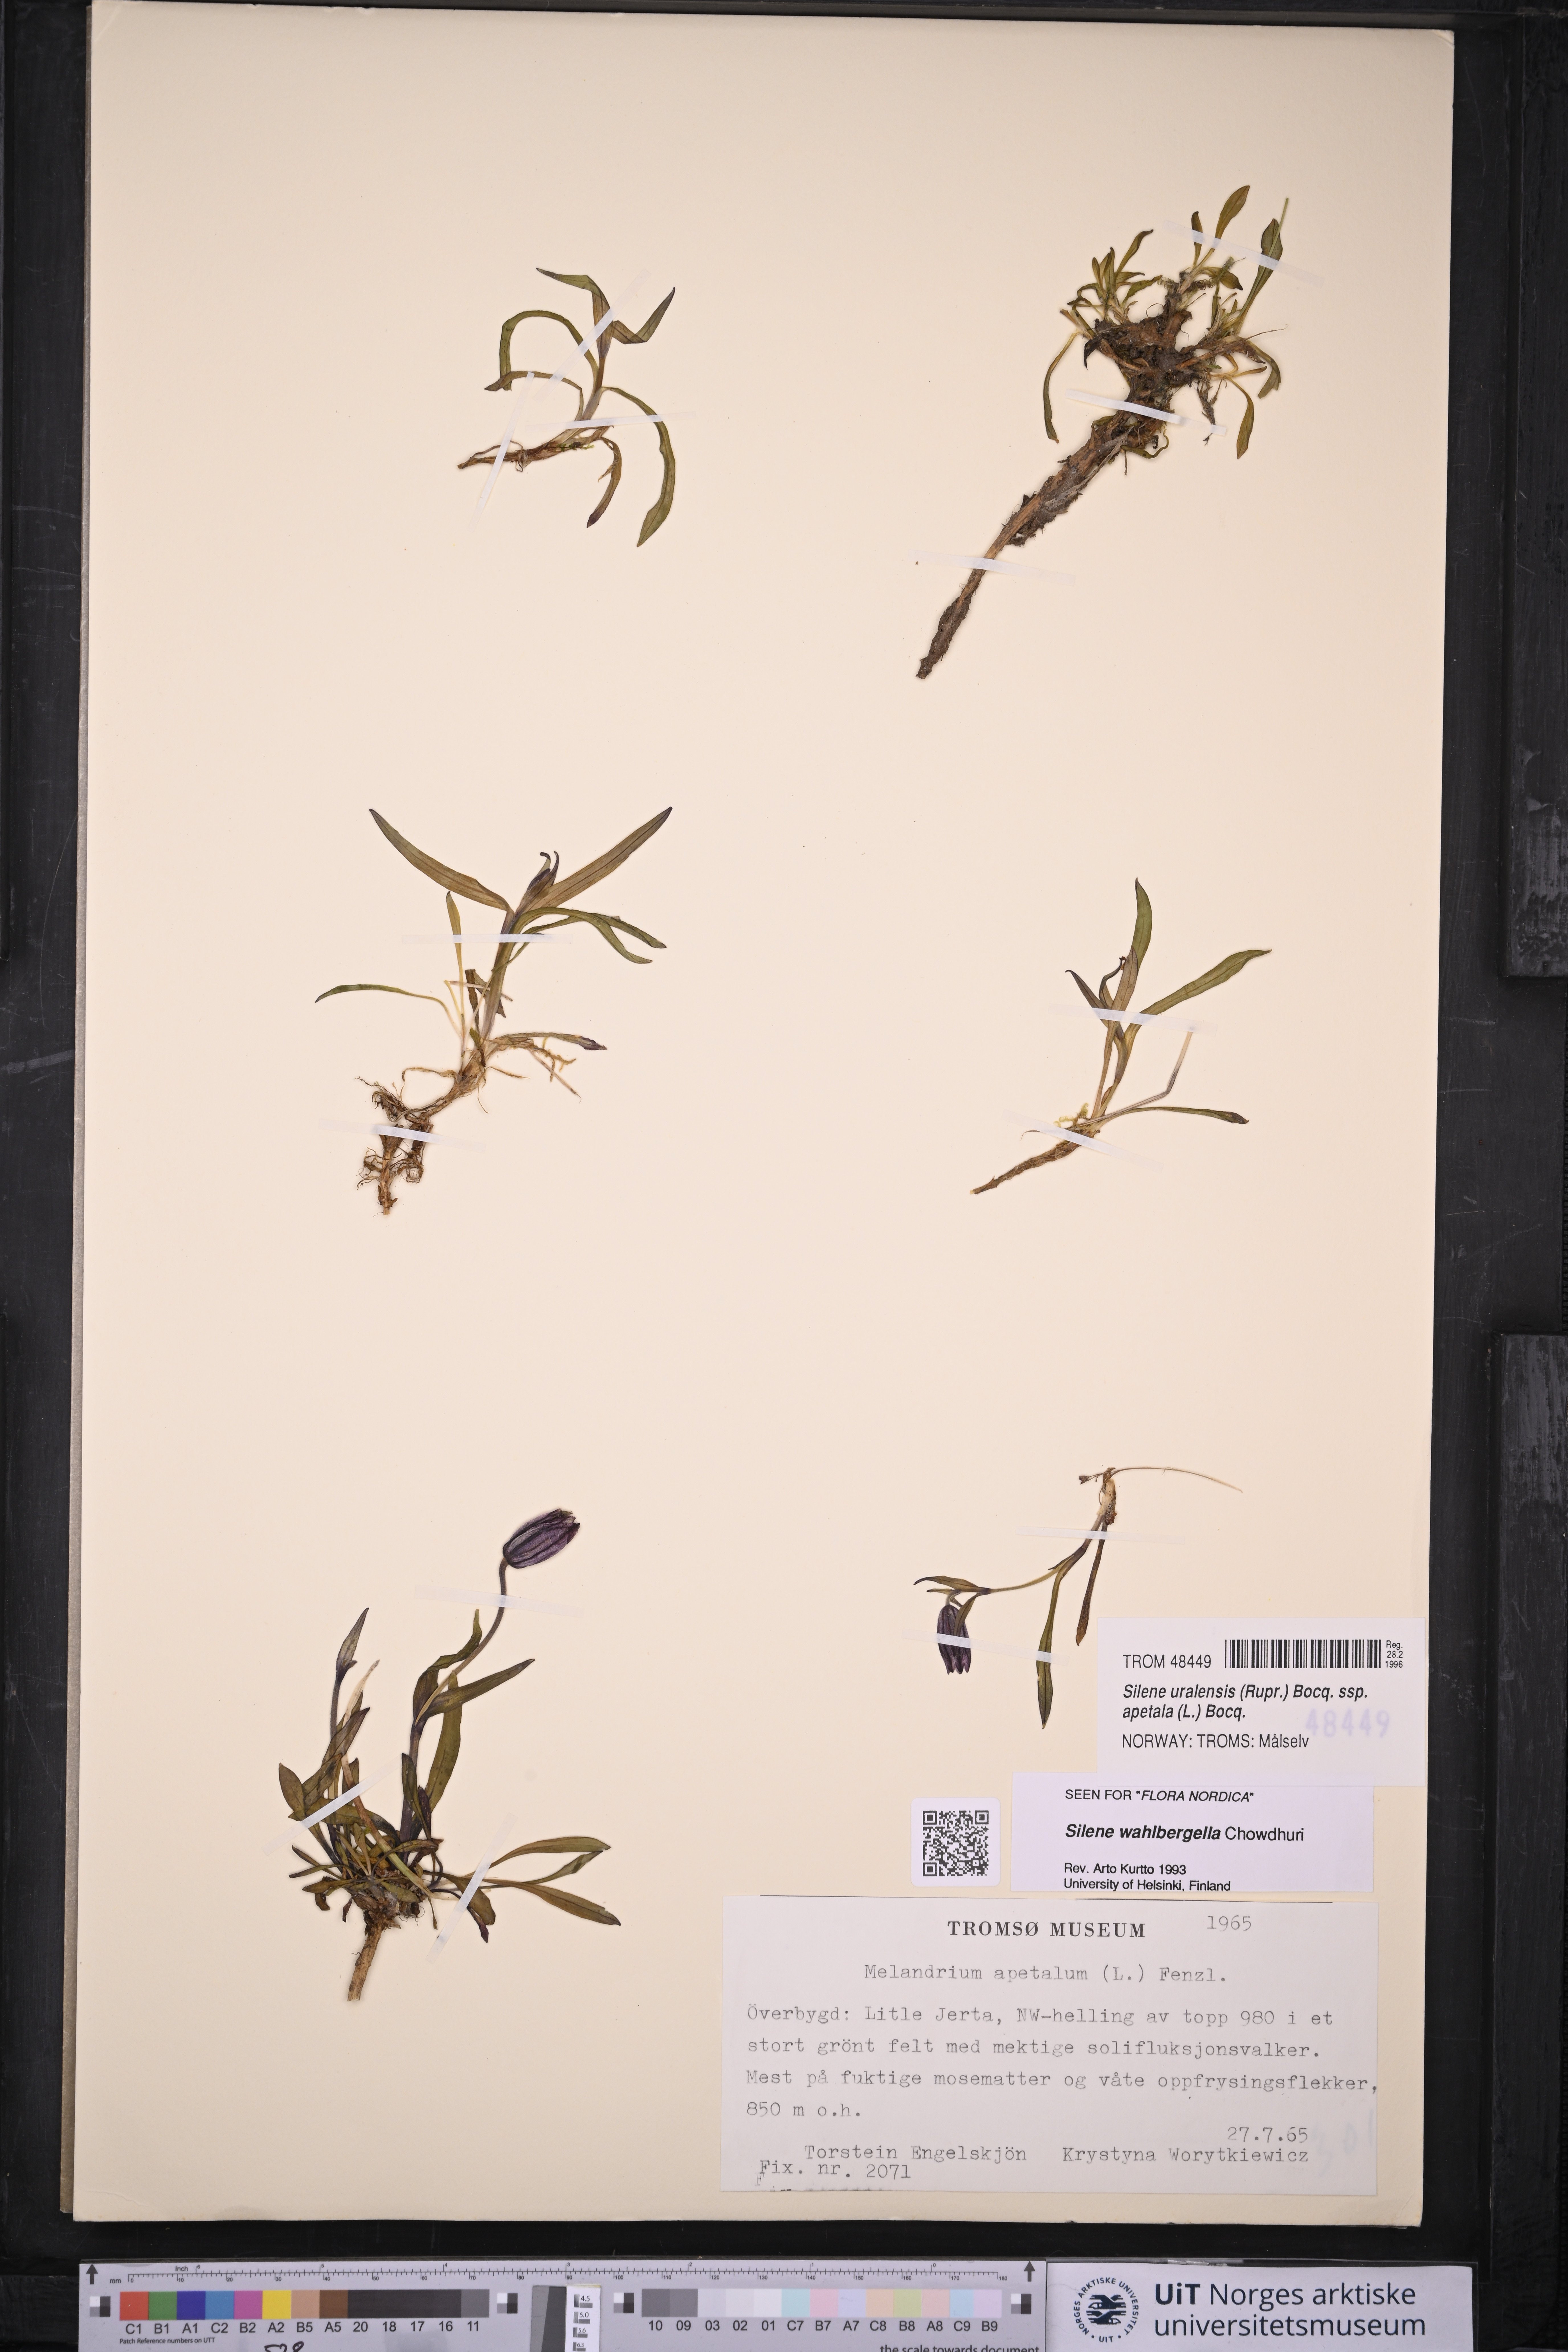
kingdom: Plantae
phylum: Tracheophyta
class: Magnoliopsida
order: Caryophyllales
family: Caryophyllaceae
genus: Silene
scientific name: Silene wahlbergella
